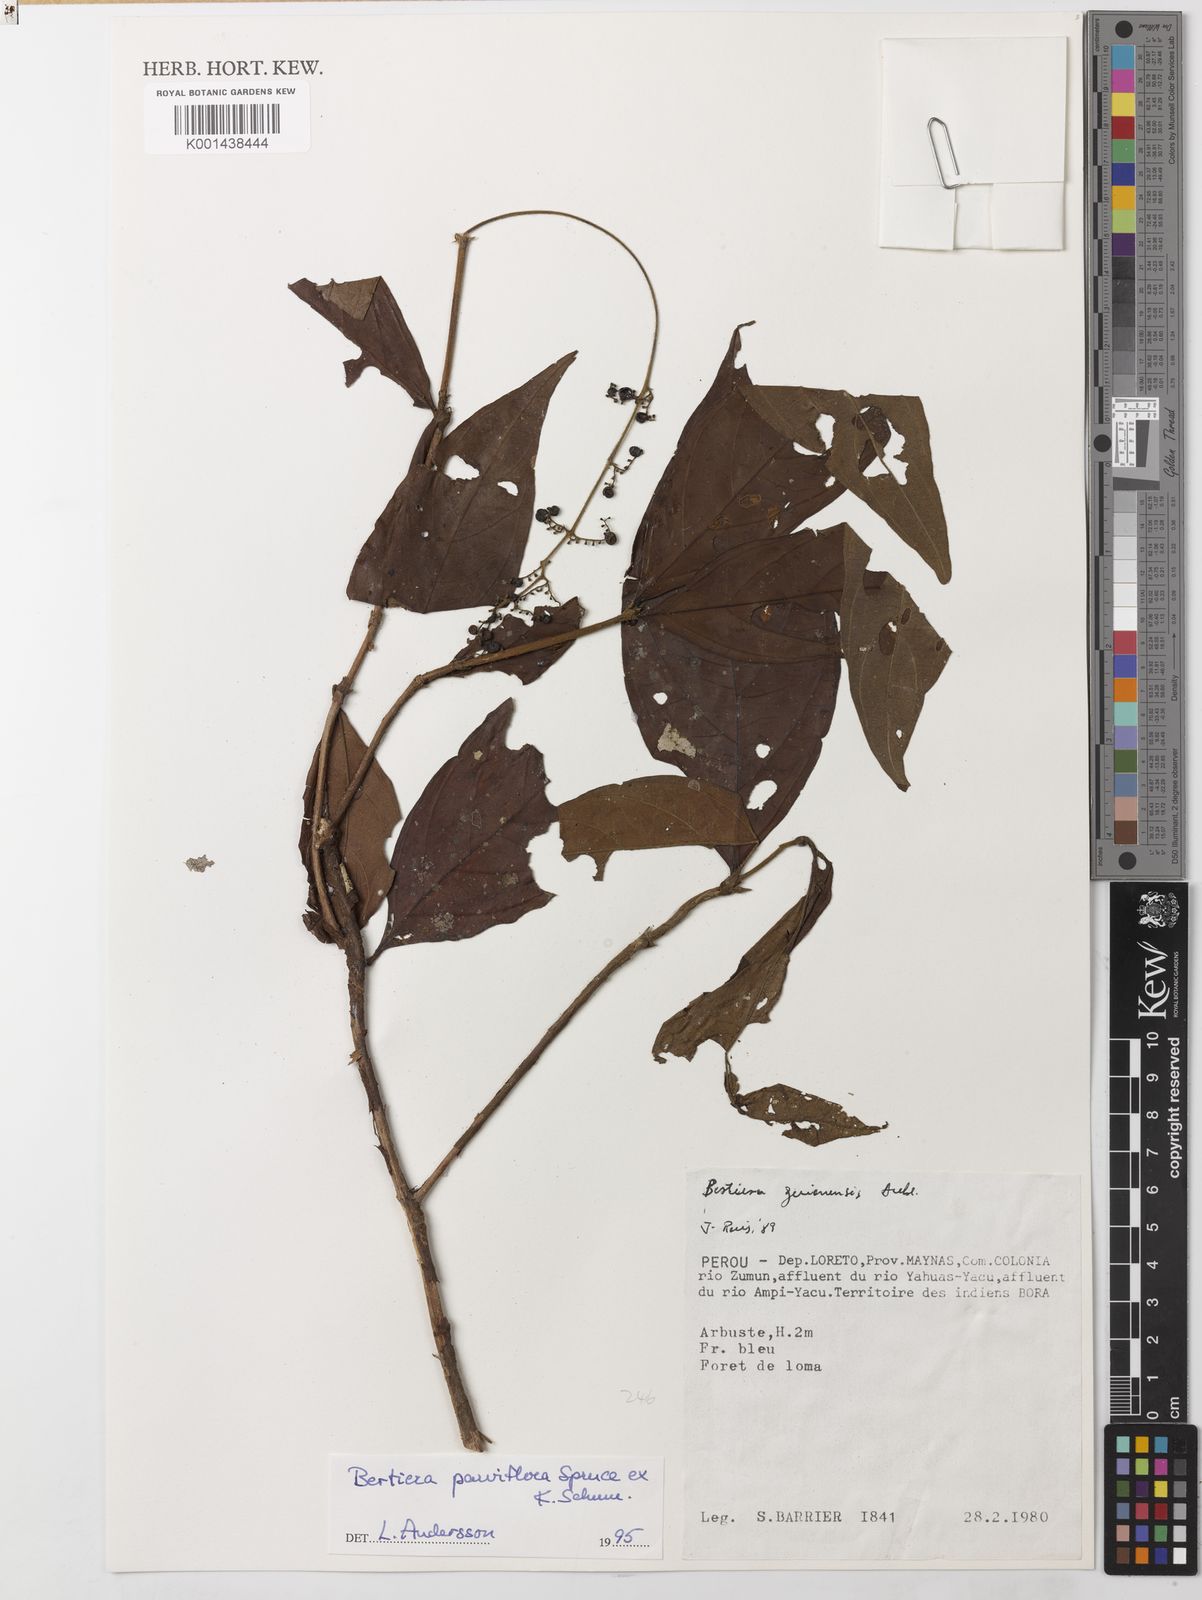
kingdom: Plantae
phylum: Tracheophyta
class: Magnoliopsida
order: Gentianales
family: Rubiaceae
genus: Bertiera
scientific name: Bertiera
